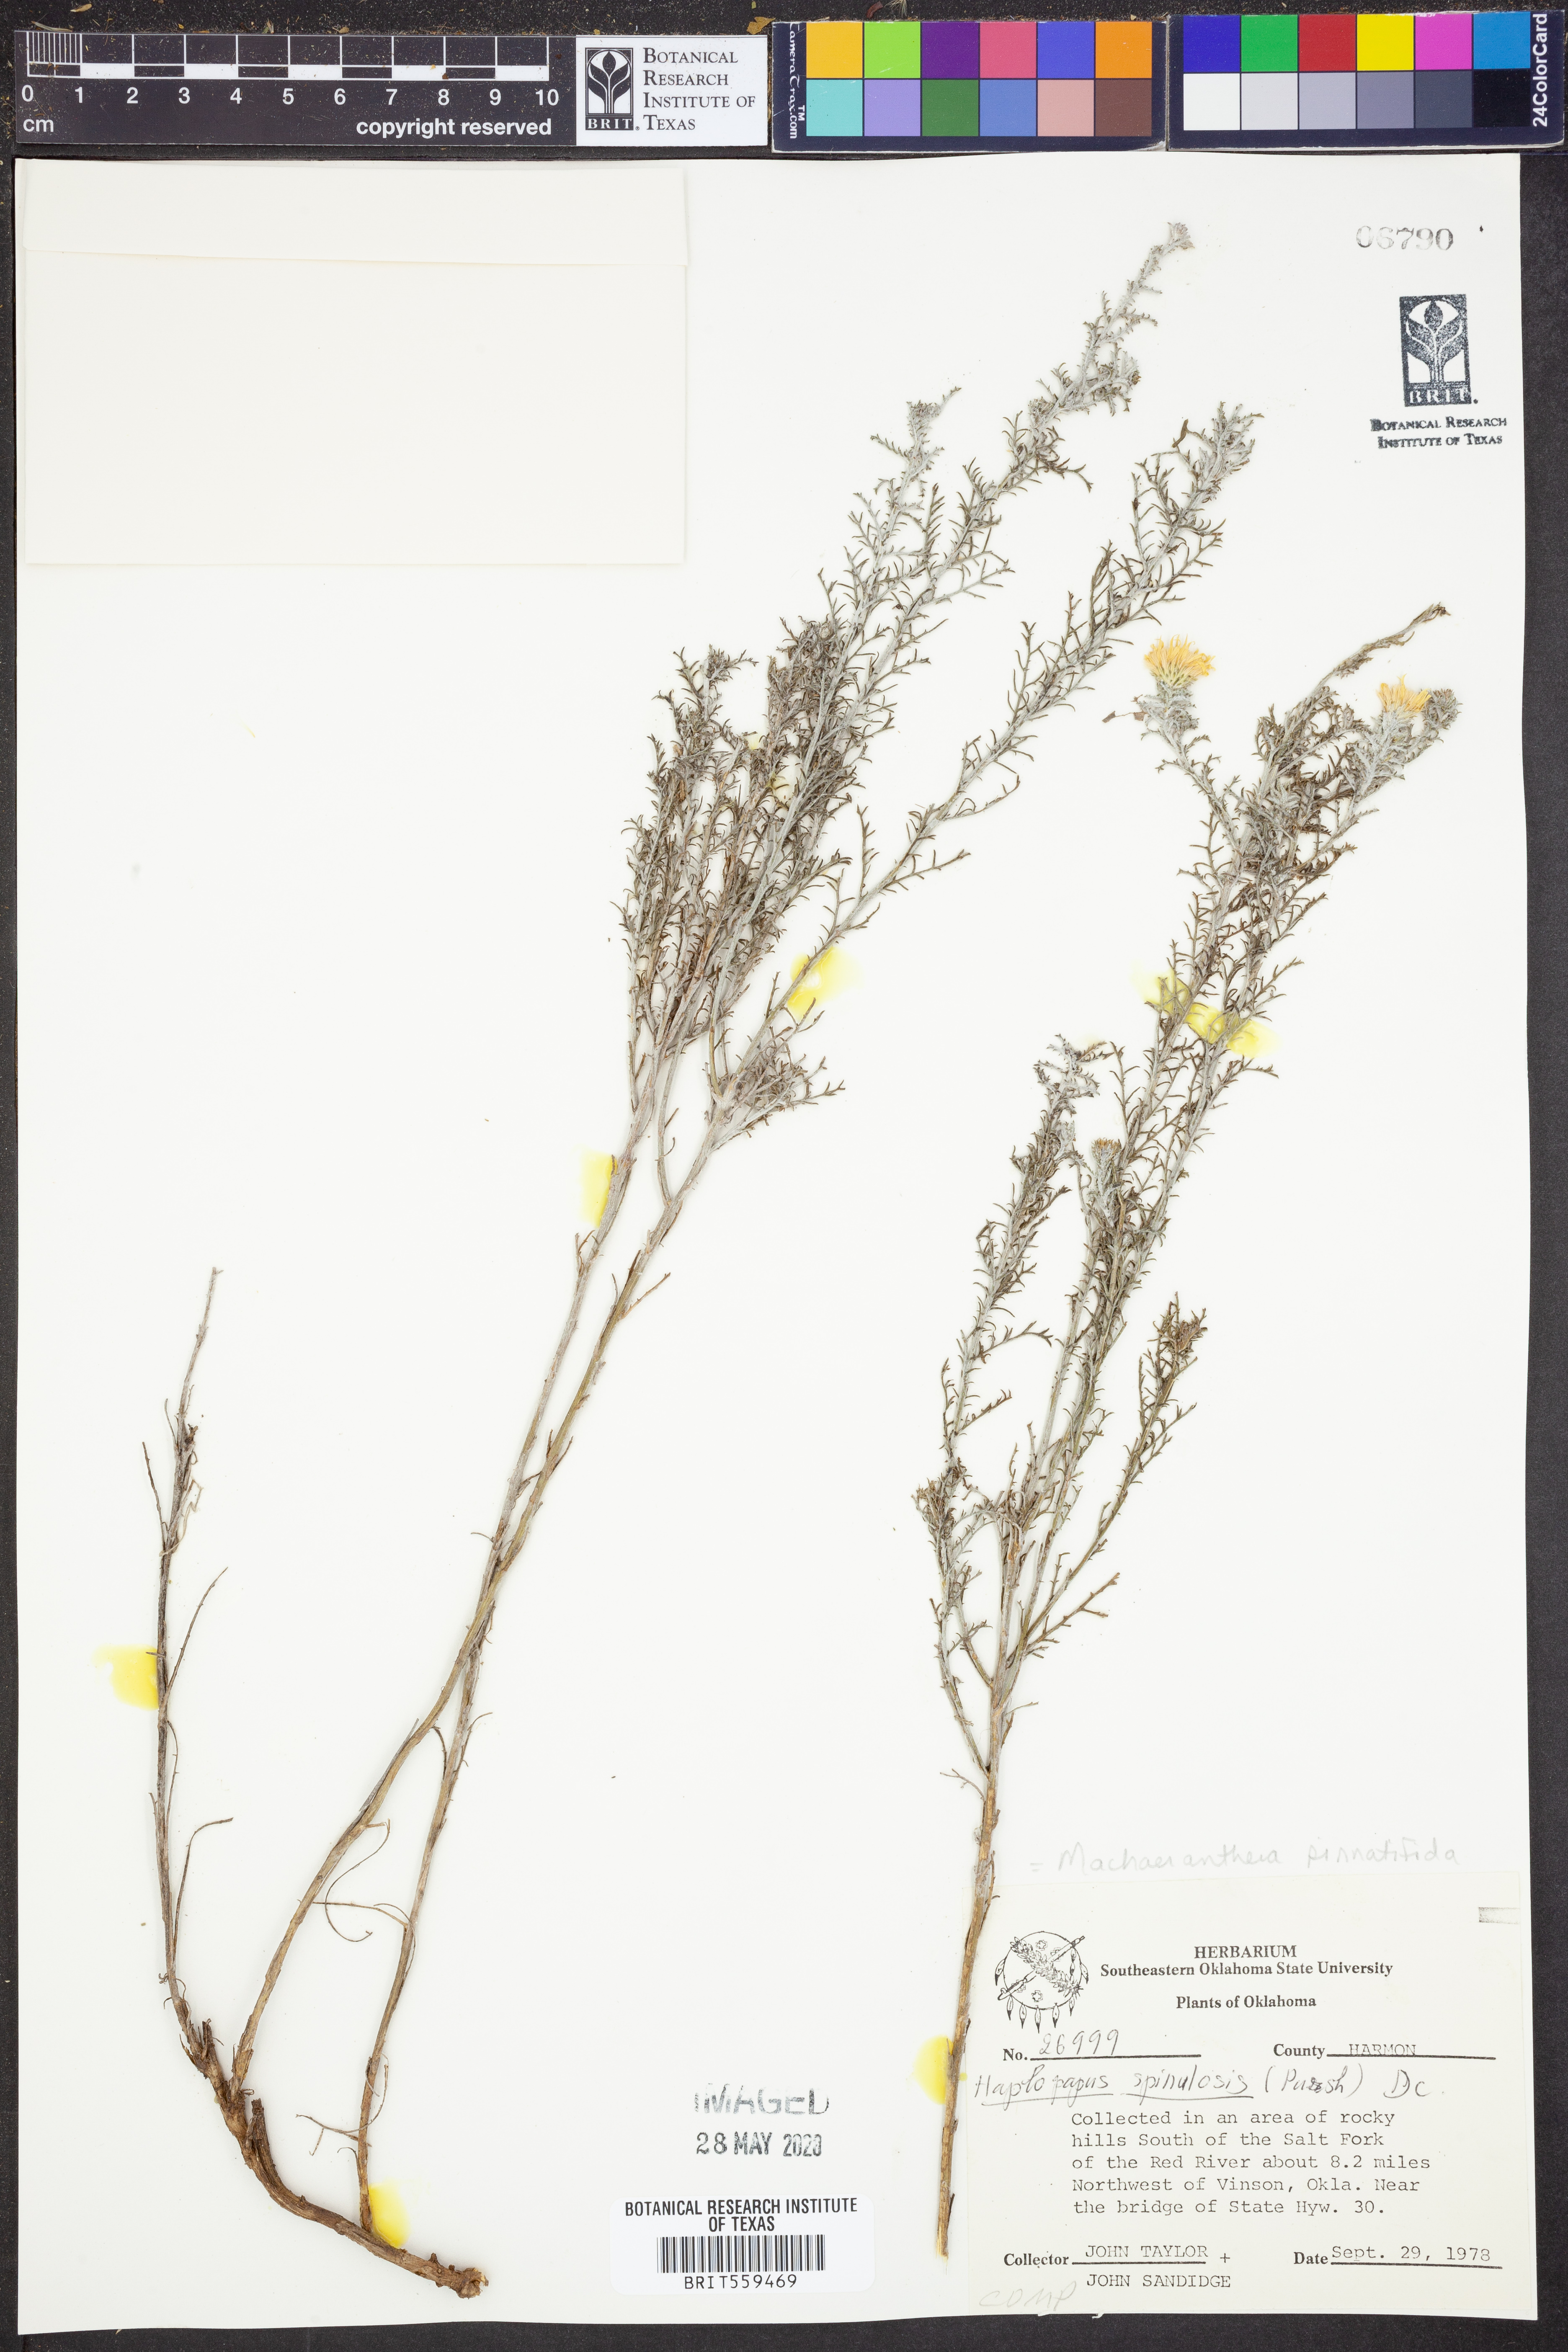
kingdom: Plantae
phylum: Tracheophyta
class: Magnoliopsida
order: Asterales
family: Asteraceae
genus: Xanthisma
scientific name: Xanthisma spinulosum
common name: Spiny goldenweed
